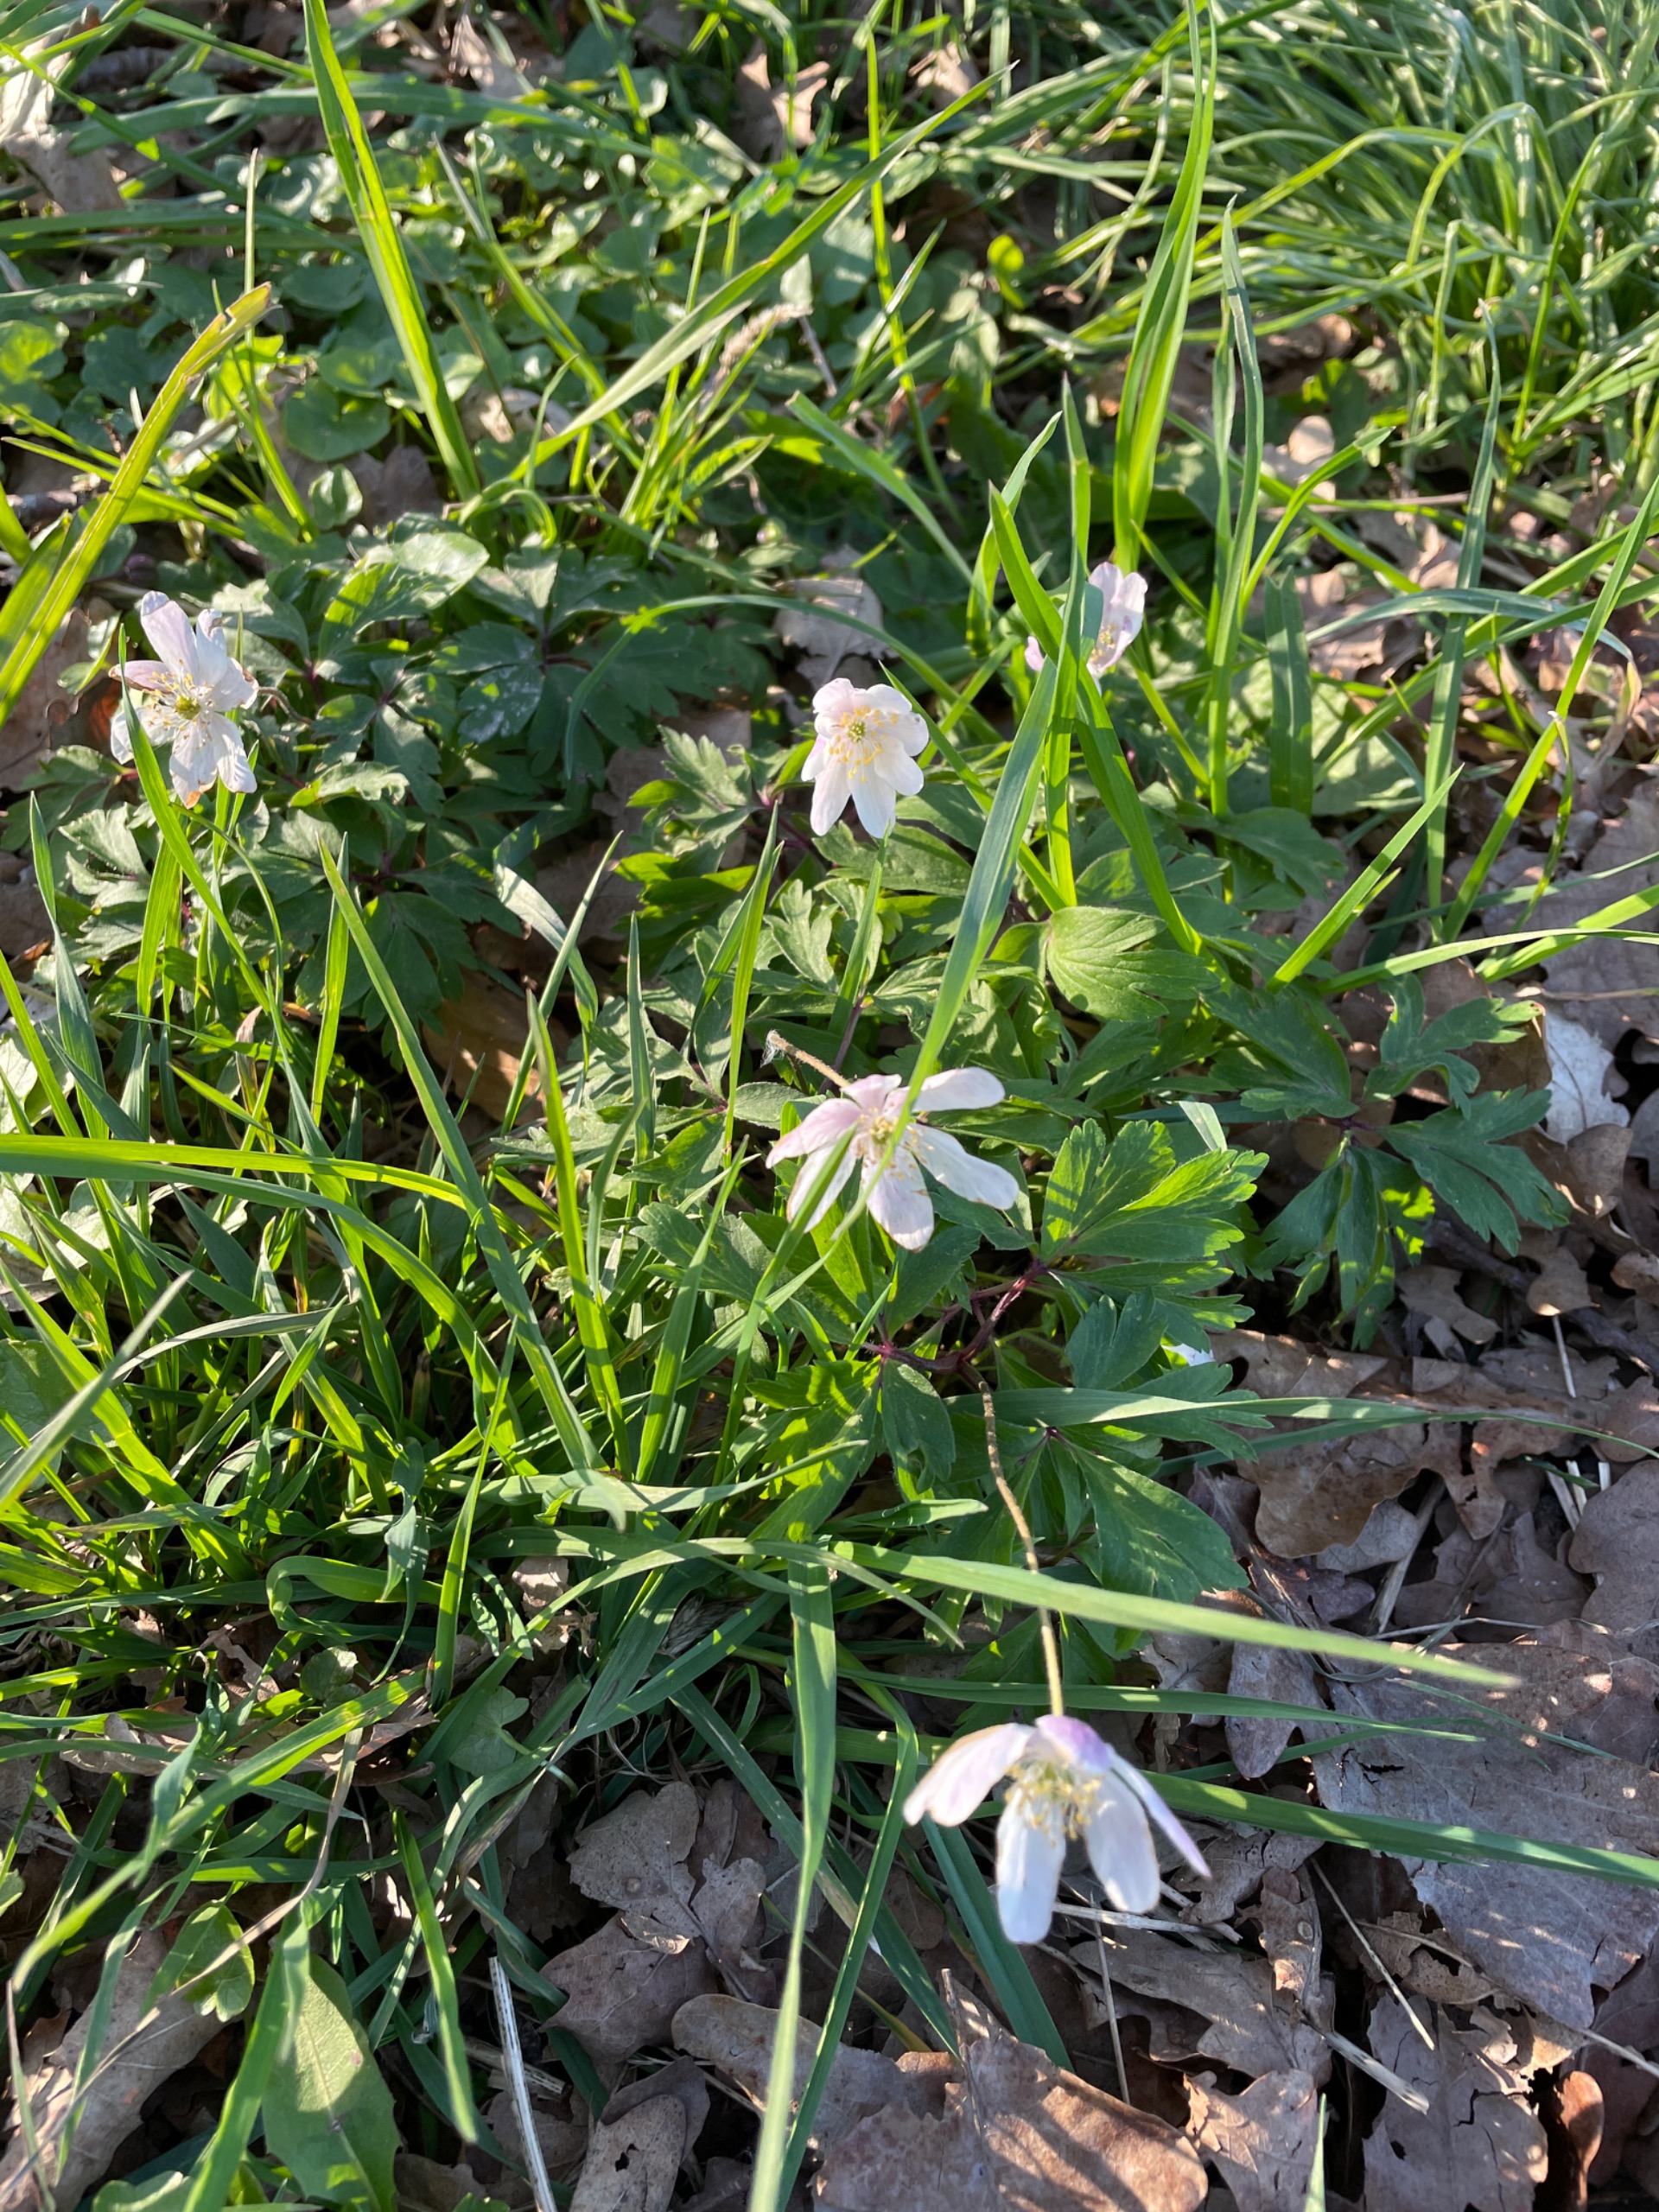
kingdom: Plantae
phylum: Tracheophyta
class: Magnoliopsida
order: Ranunculales
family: Ranunculaceae
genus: Anemone
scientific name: Anemone nemorosa
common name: Hvid anemone
